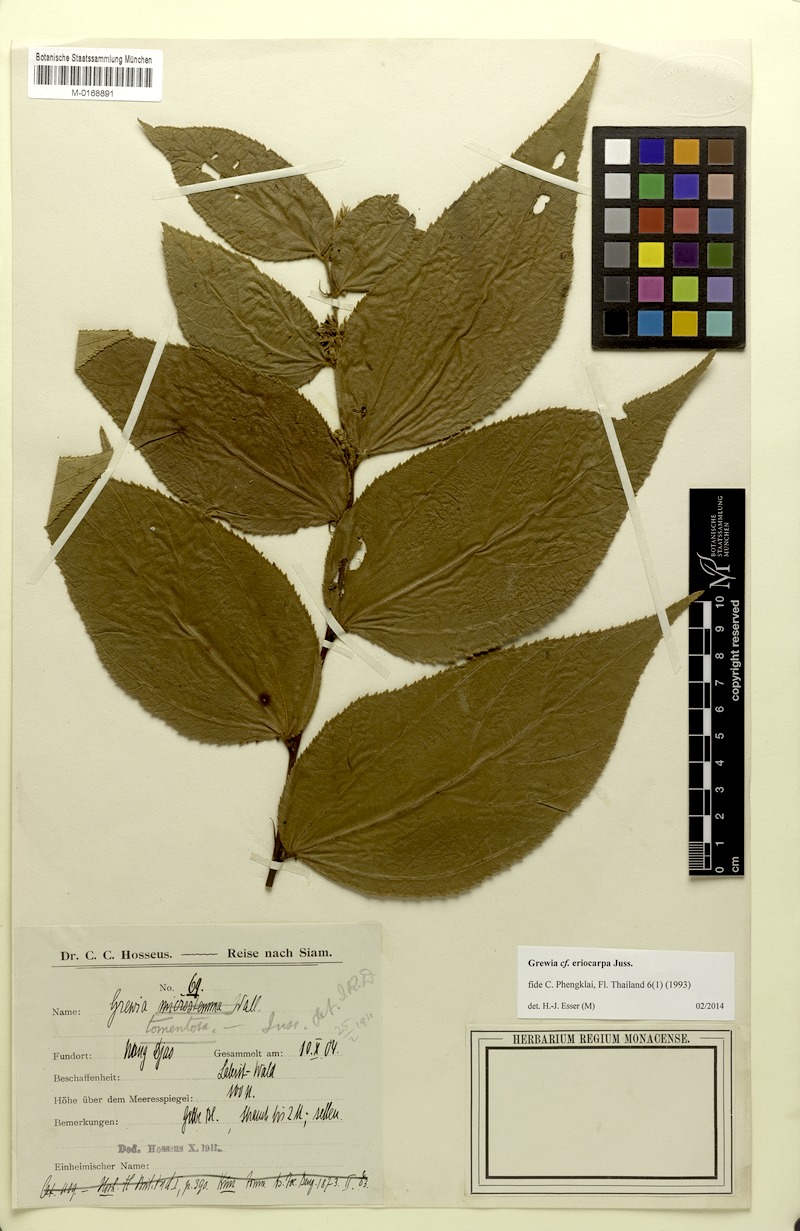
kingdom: Plantae
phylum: Tracheophyta
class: Magnoliopsida
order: Malvales
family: Malvaceae
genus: Grewia
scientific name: Grewia eriocarpa
